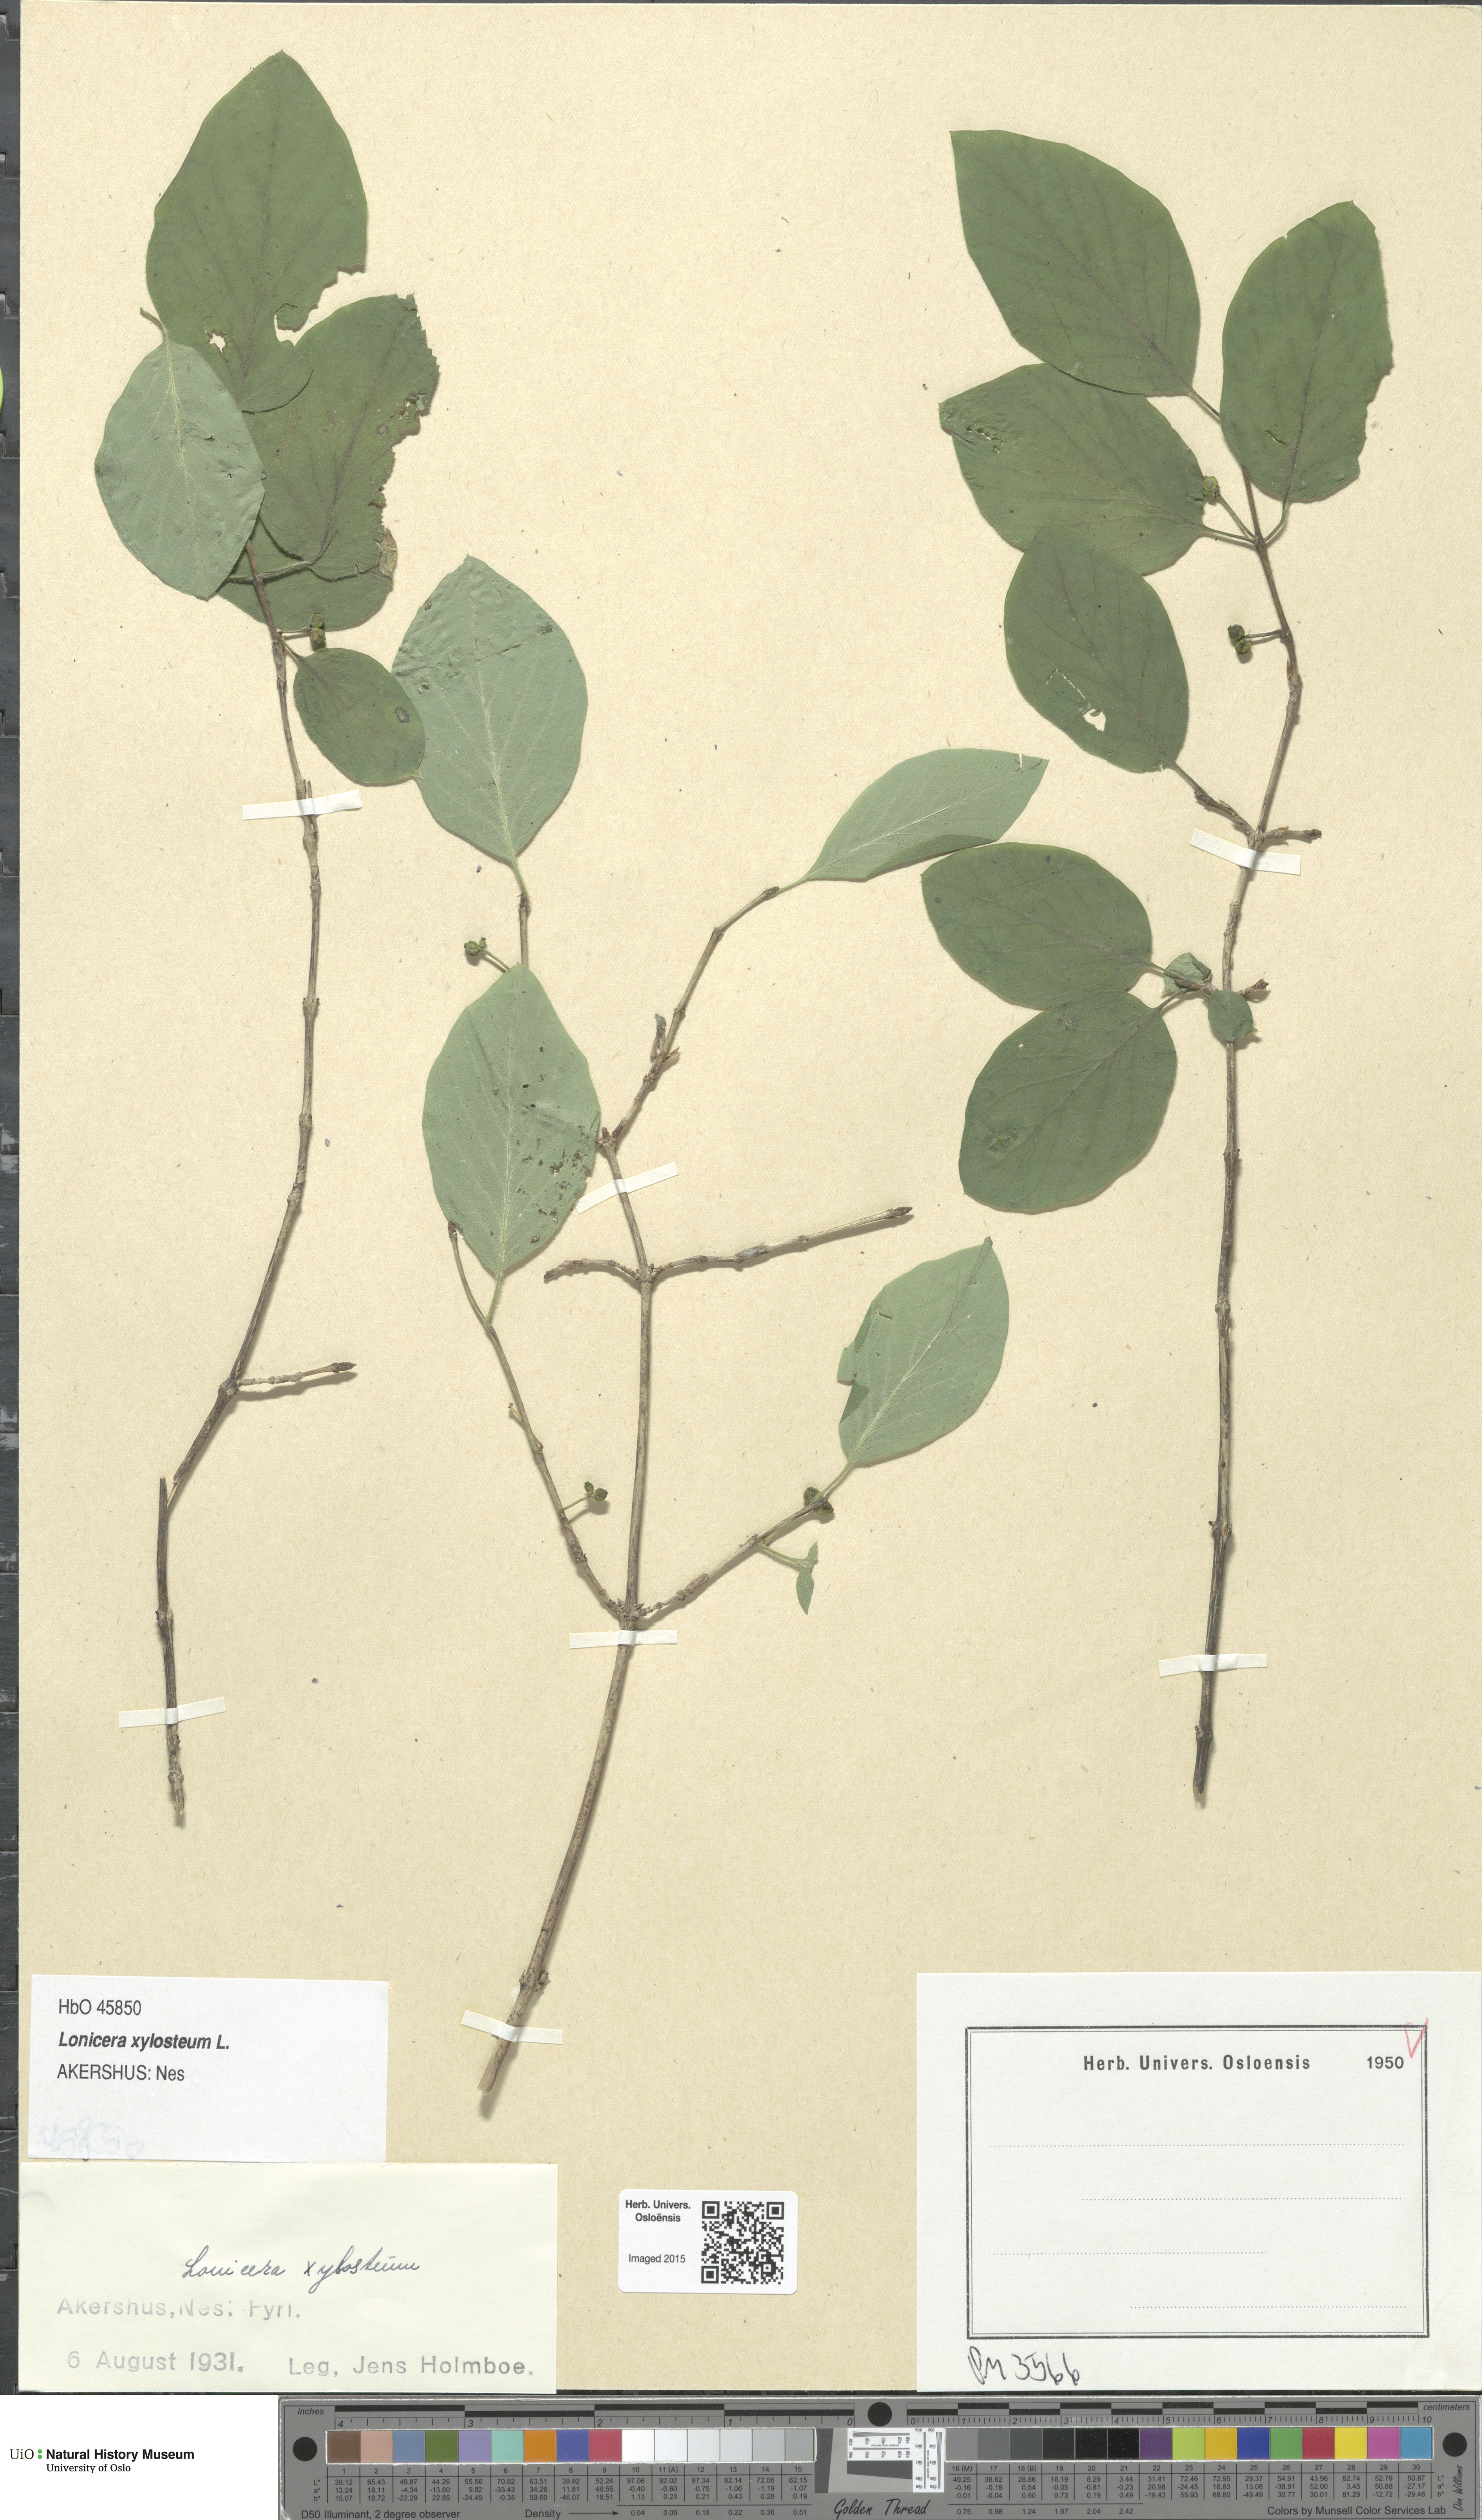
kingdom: Plantae
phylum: Tracheophyta
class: Magnoliopsida
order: Dipsacales
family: Caprifoliaceae
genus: Lonicera
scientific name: Lonicera xylosteum
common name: Fly honeysuckle
